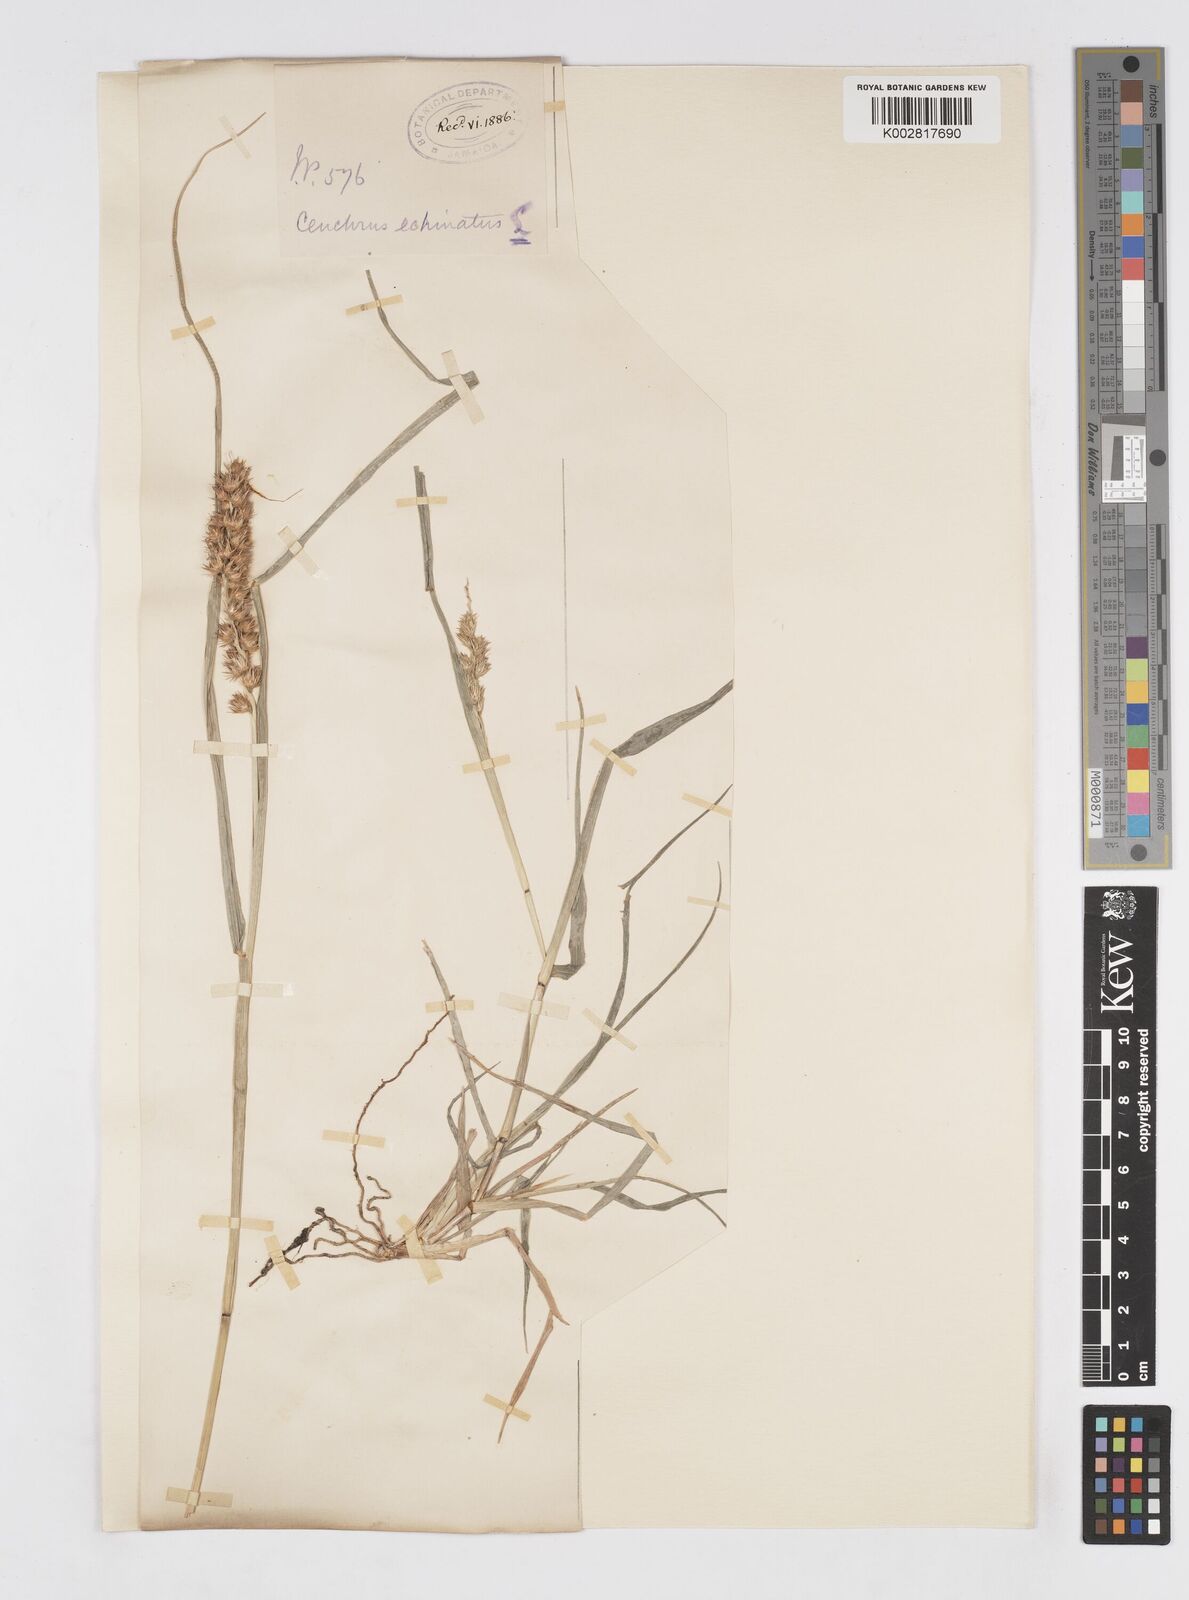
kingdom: Plantae
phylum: Tracheophyta
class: Liliopsida
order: Poales
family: Poaceae
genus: Cenchrus
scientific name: Cenchrus
